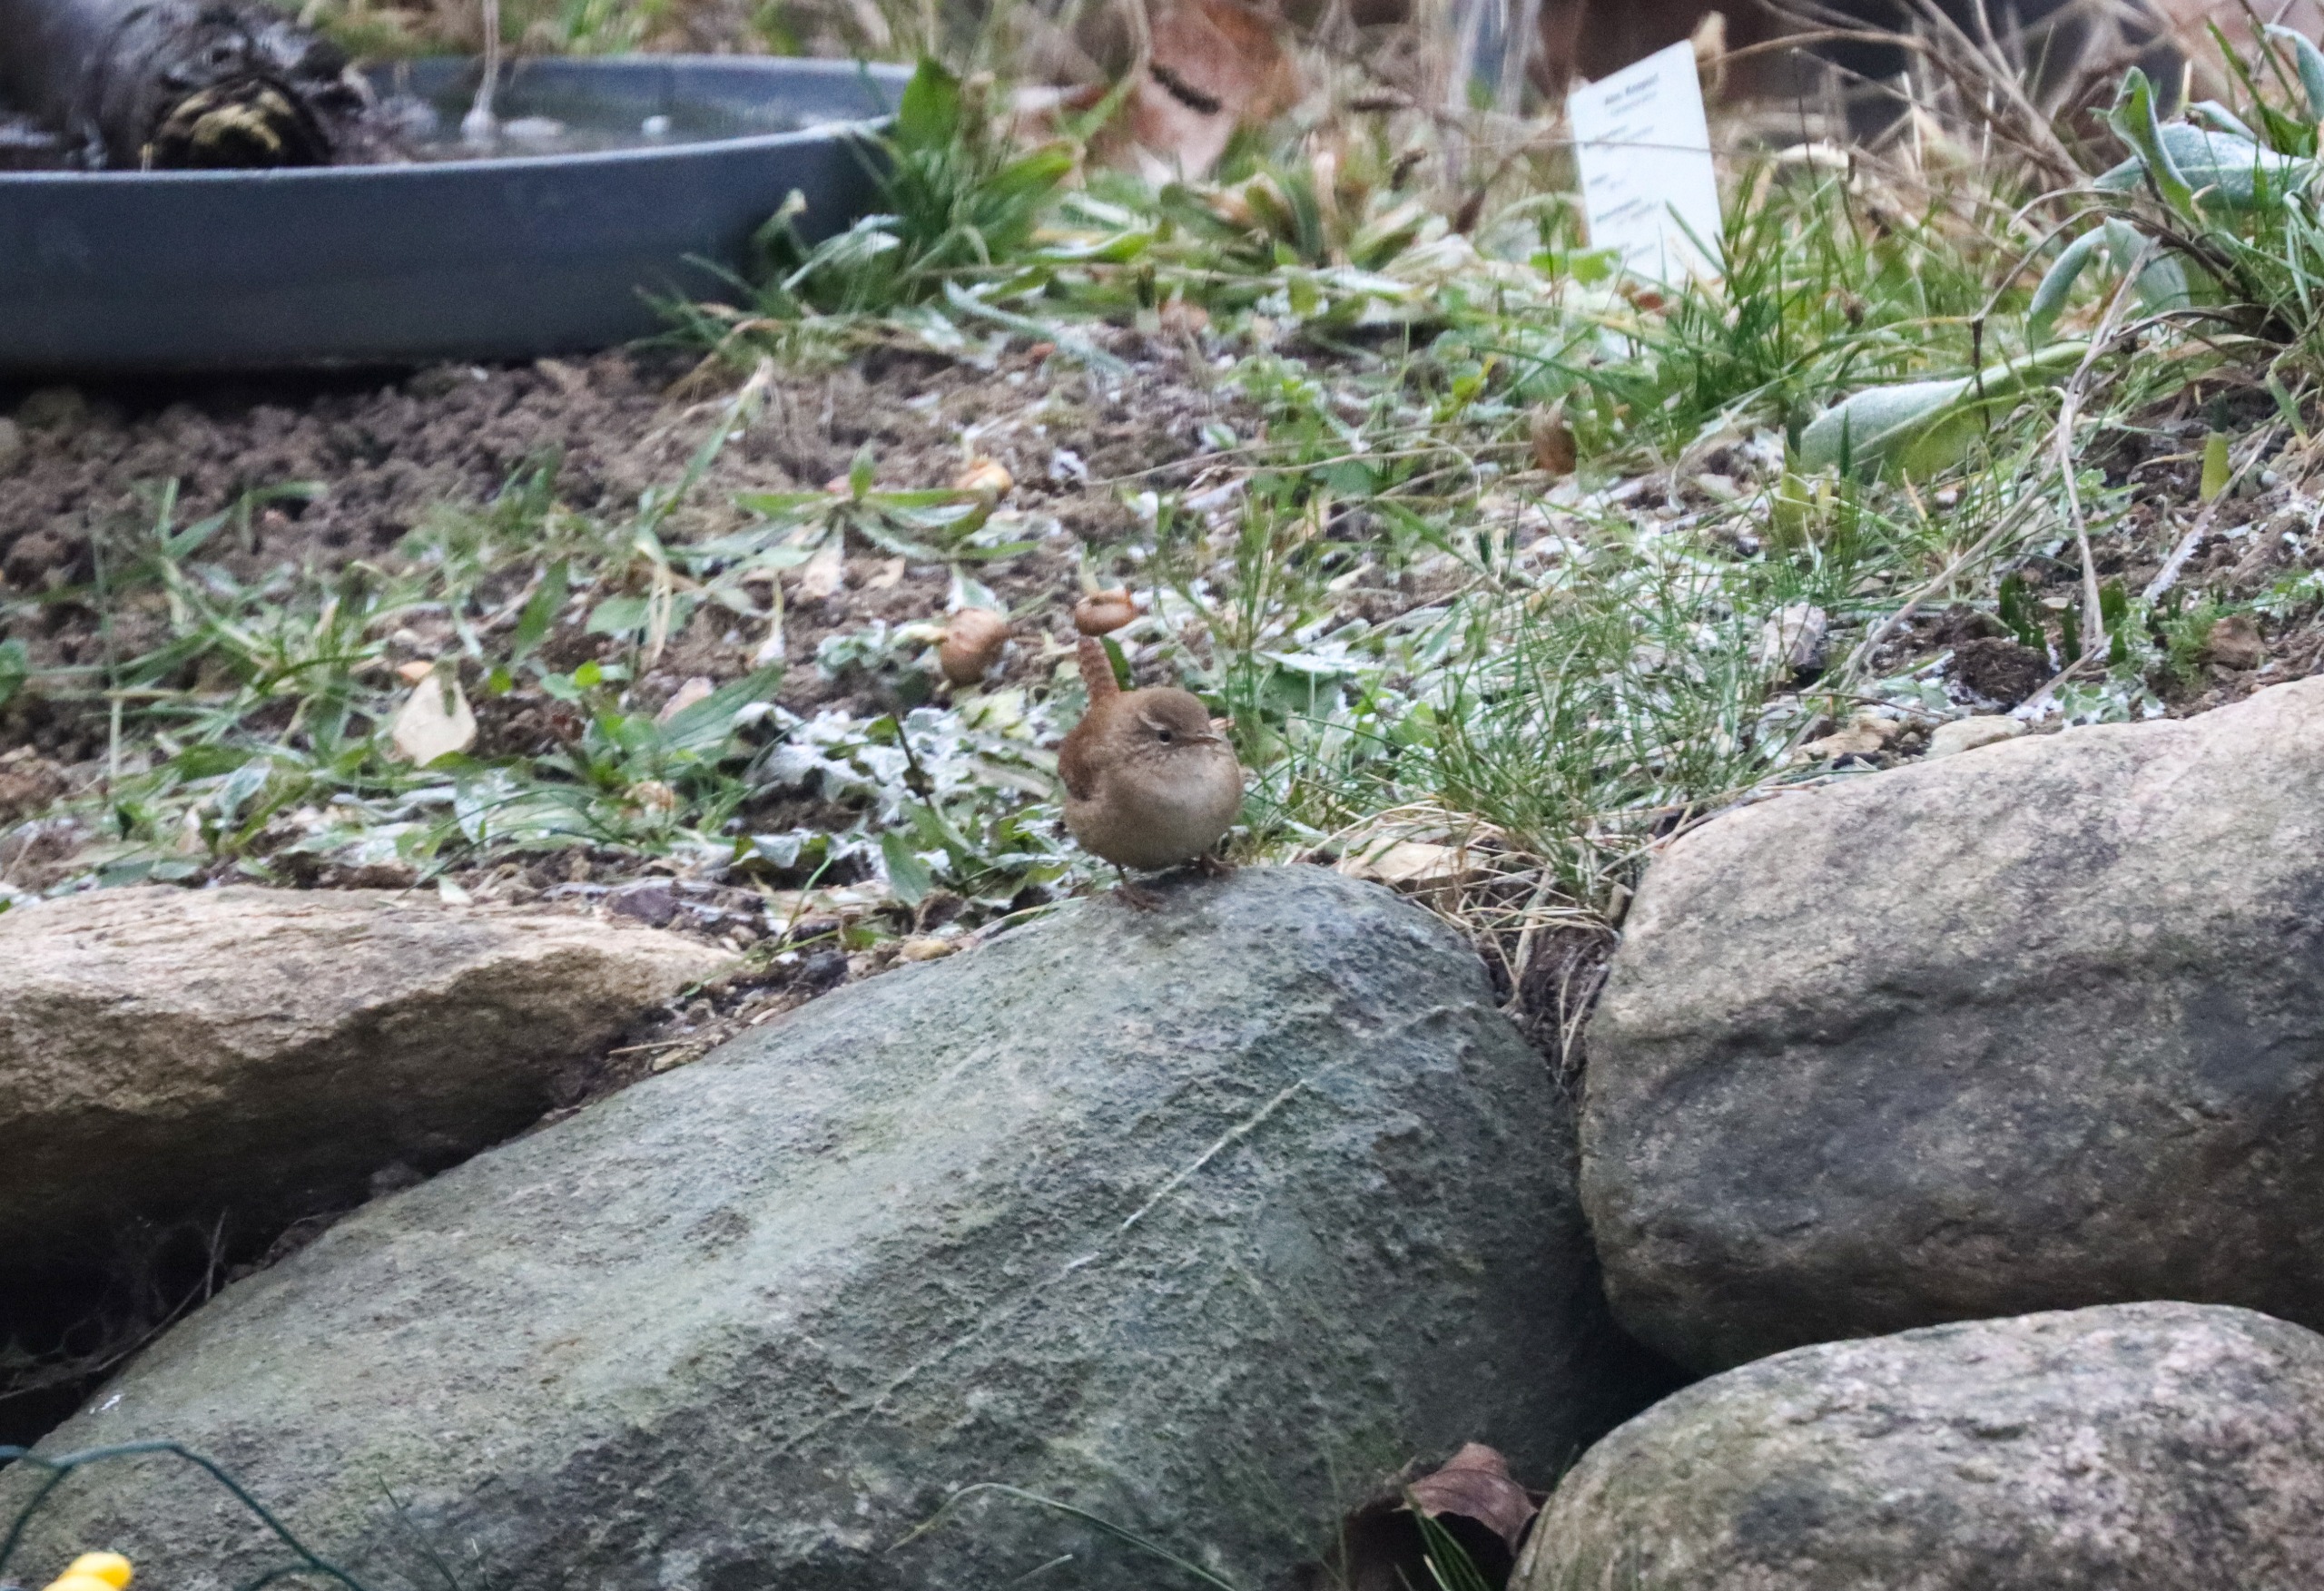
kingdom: Animalia
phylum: Chordata
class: Aves
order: Passeriformes
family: Troglodytidae
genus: Troglodytes
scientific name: Troglodytes troglodytes
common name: Gærdesmutte
